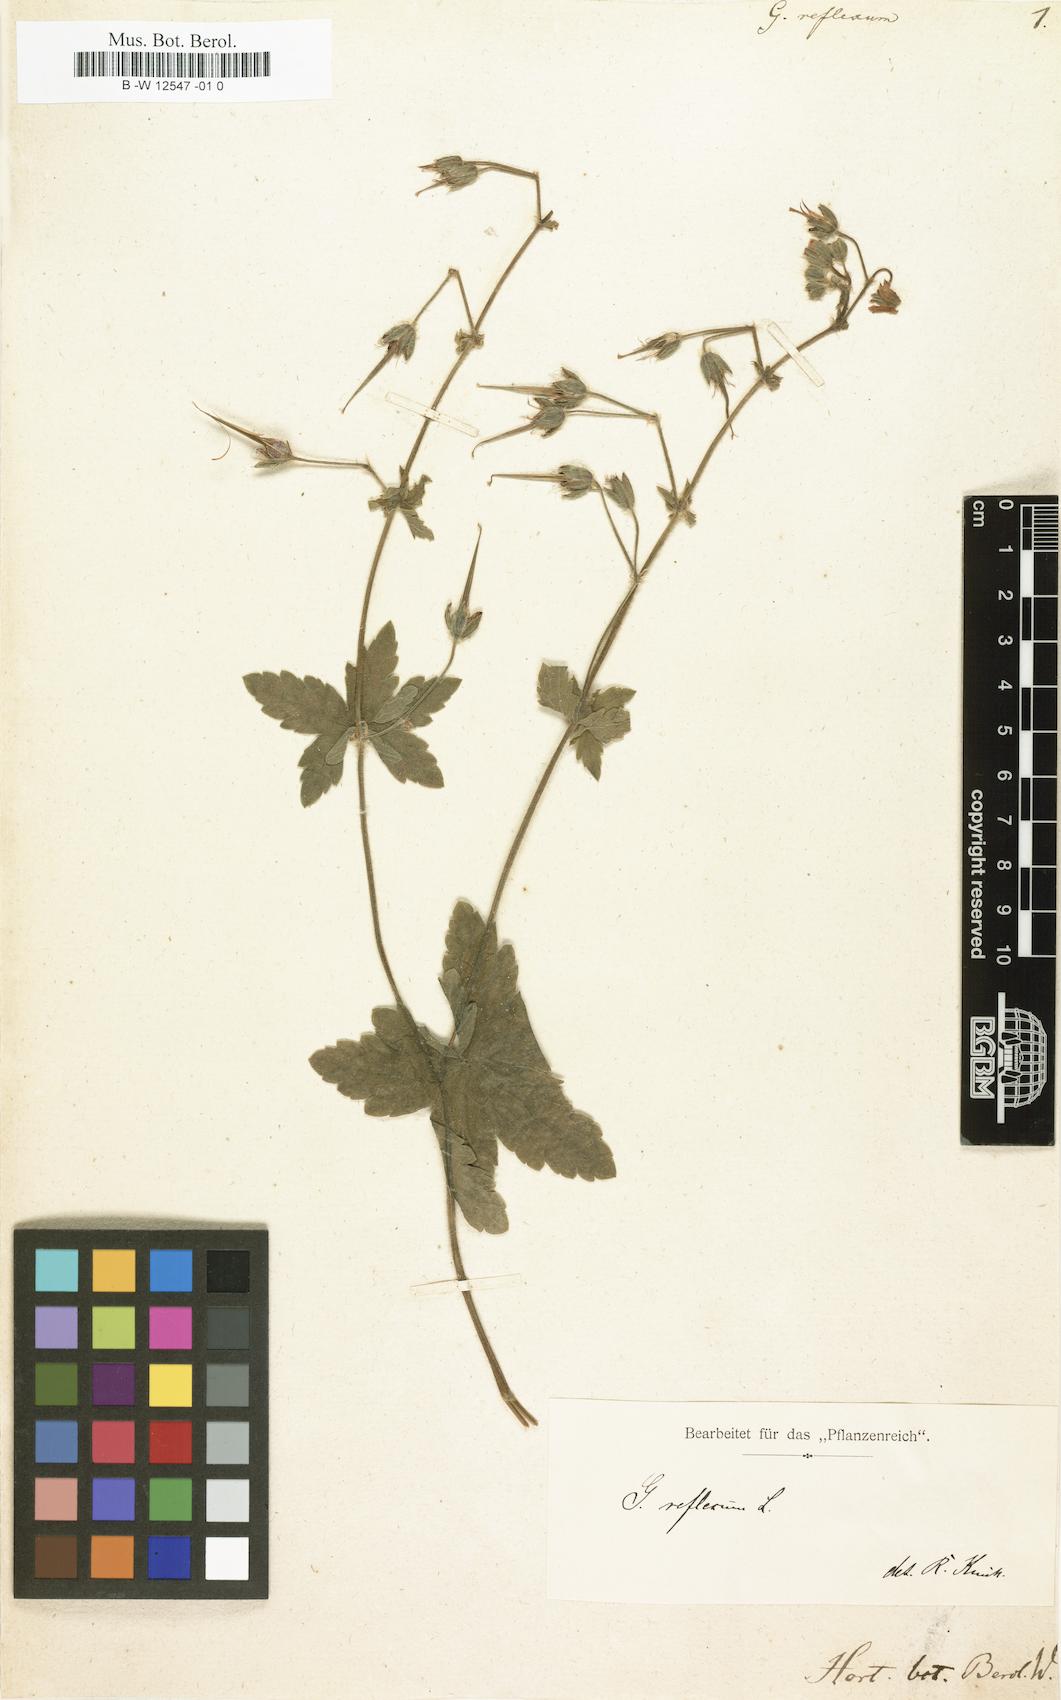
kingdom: Plantae
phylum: Tracheophyta
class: Magnoliopsida
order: Geraniales
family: Geraniaceae
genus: Geranium
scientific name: Geranium reflexum
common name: Reflexed crane's-bill
